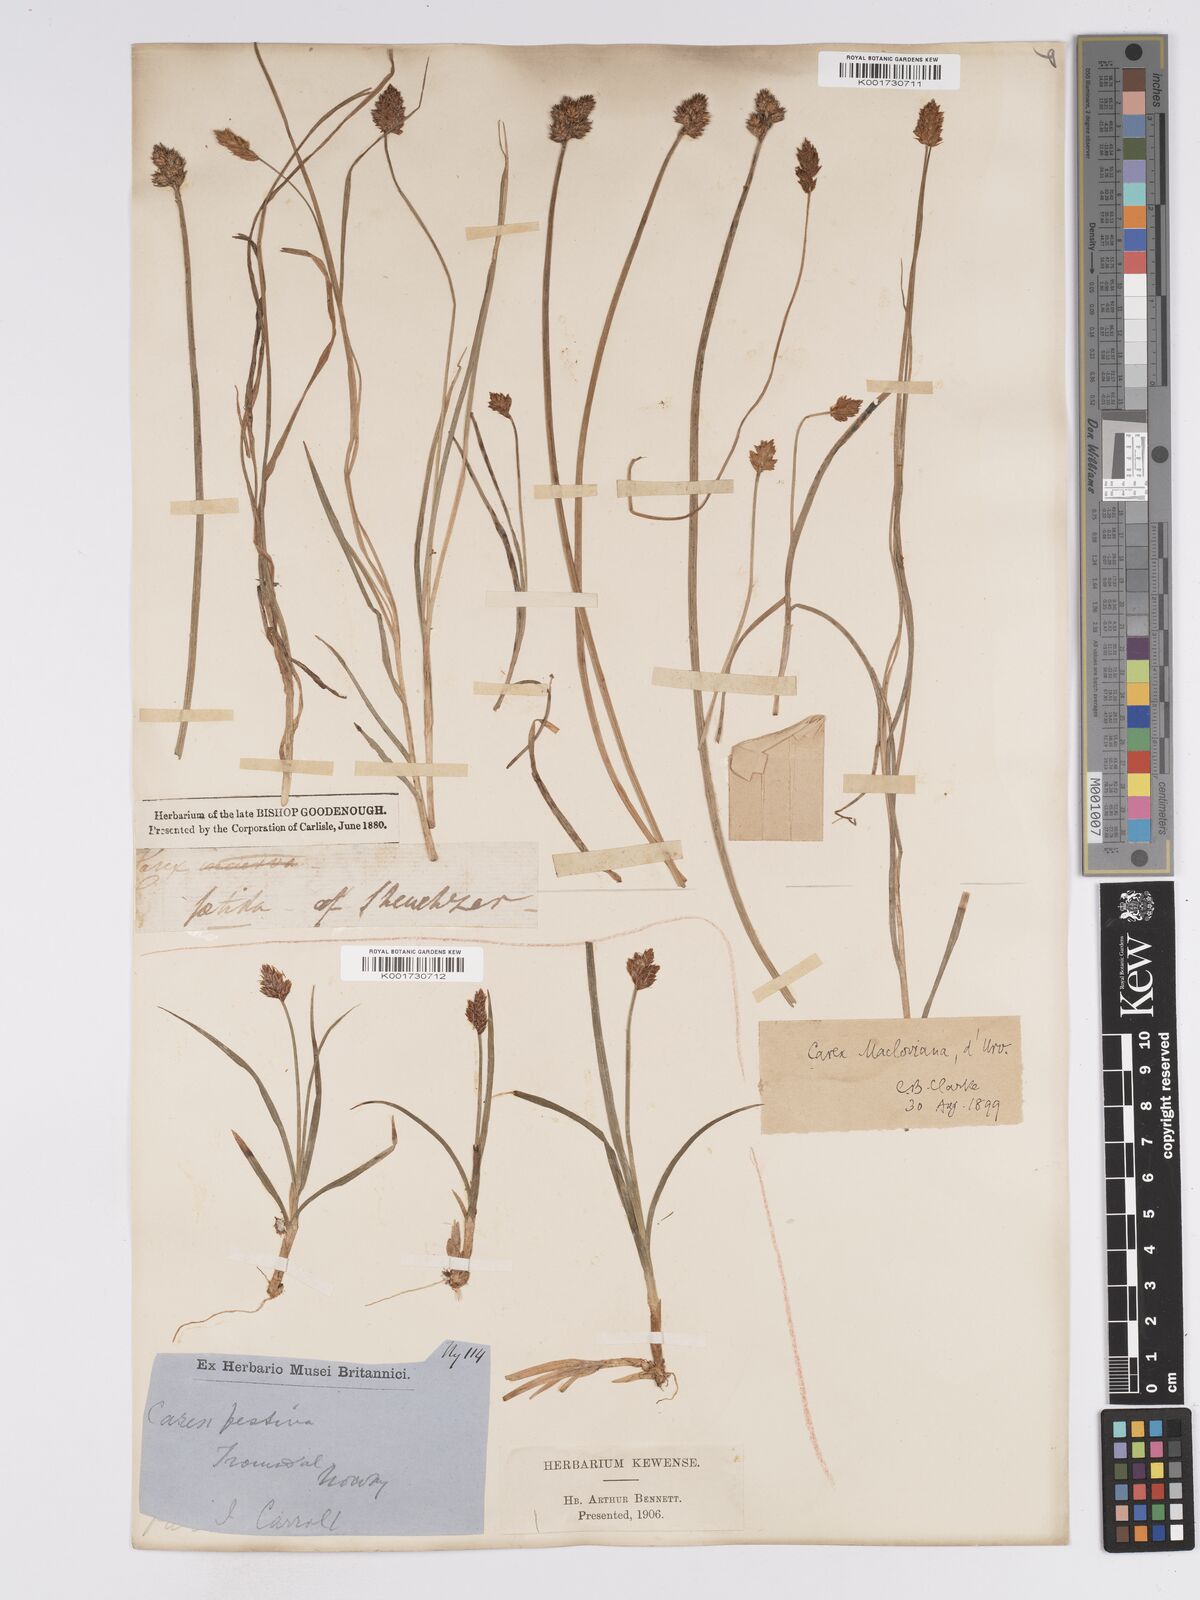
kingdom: Plantae
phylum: Tracheophyta
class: Liliopsida
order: Poales
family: Cyperaceae
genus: Carex
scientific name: Carex macloviana
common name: Falkland island sedge
